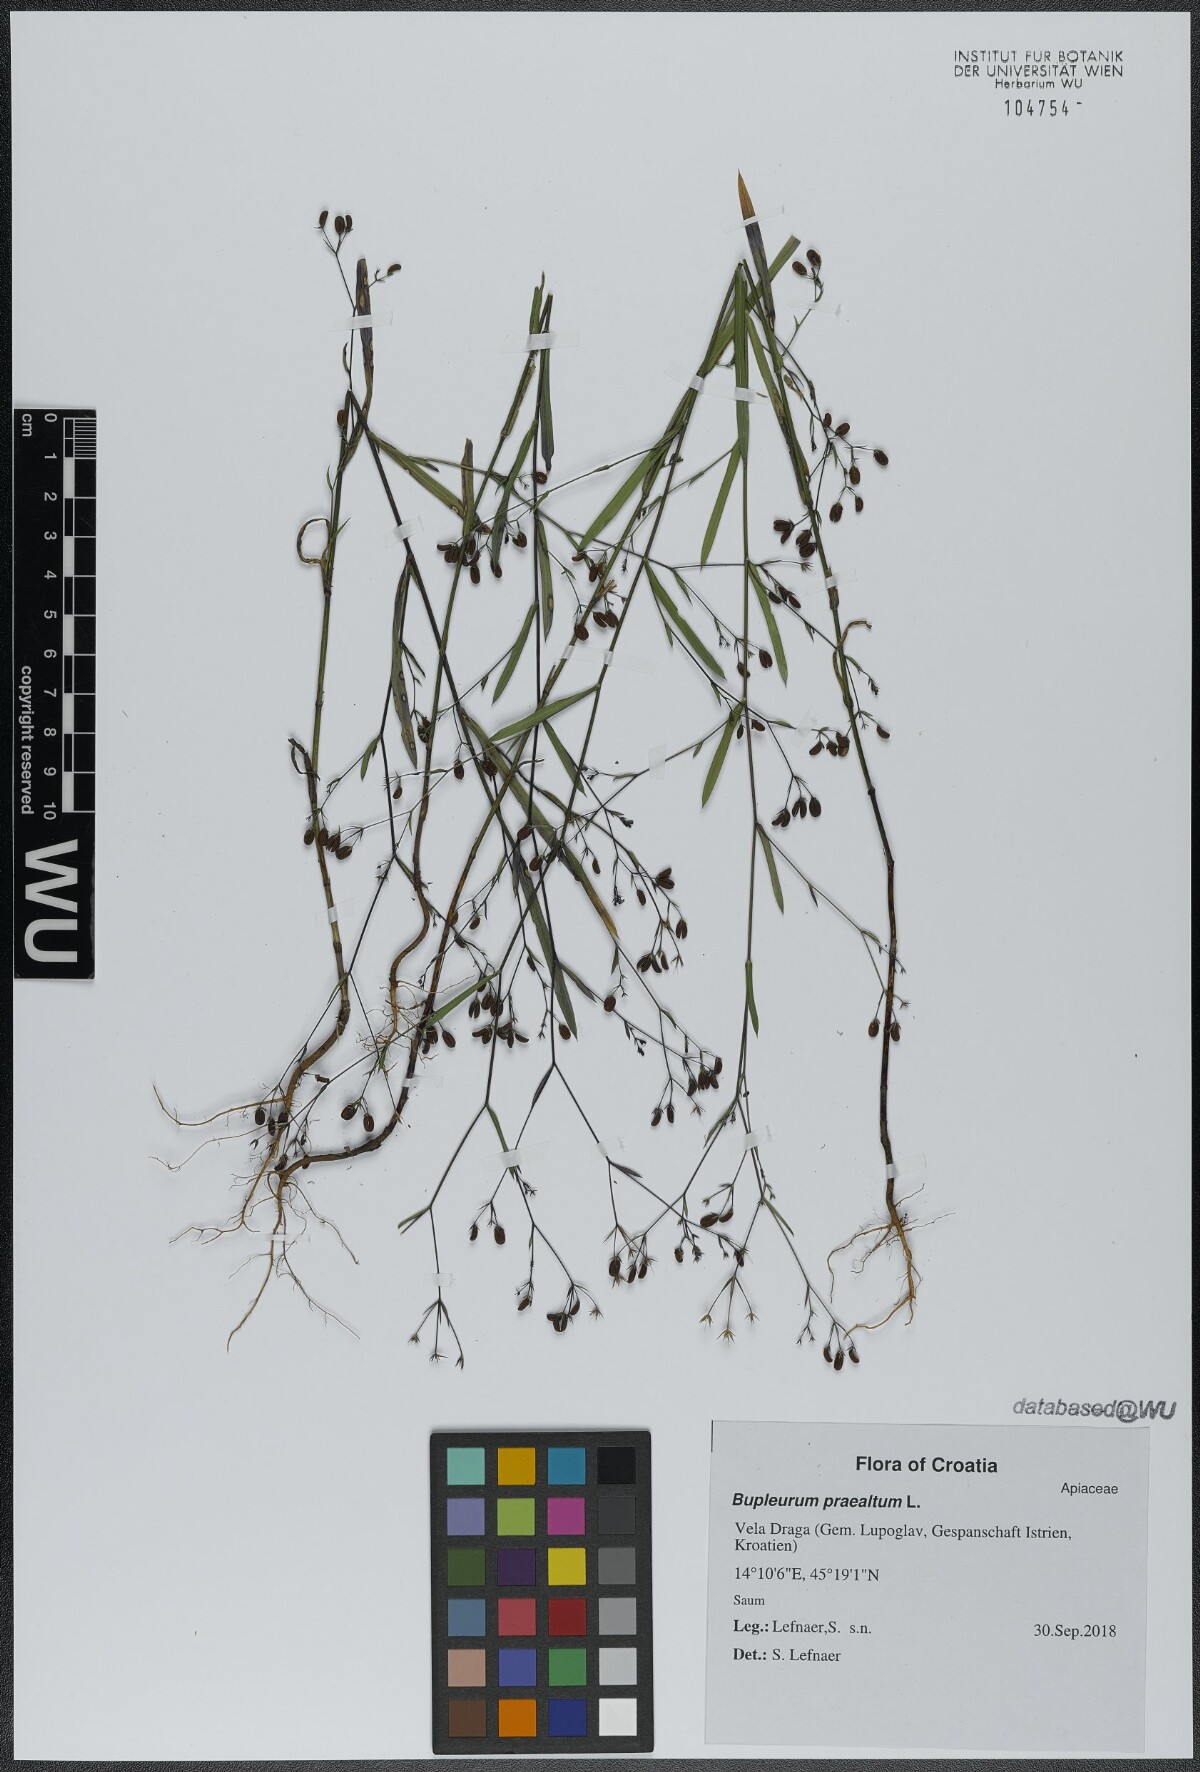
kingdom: Plantae
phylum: Tracheophyta
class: Magnoliopsida
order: Apiales
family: Apiaceae
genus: Bupleurum
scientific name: Bupleurum praealtum
